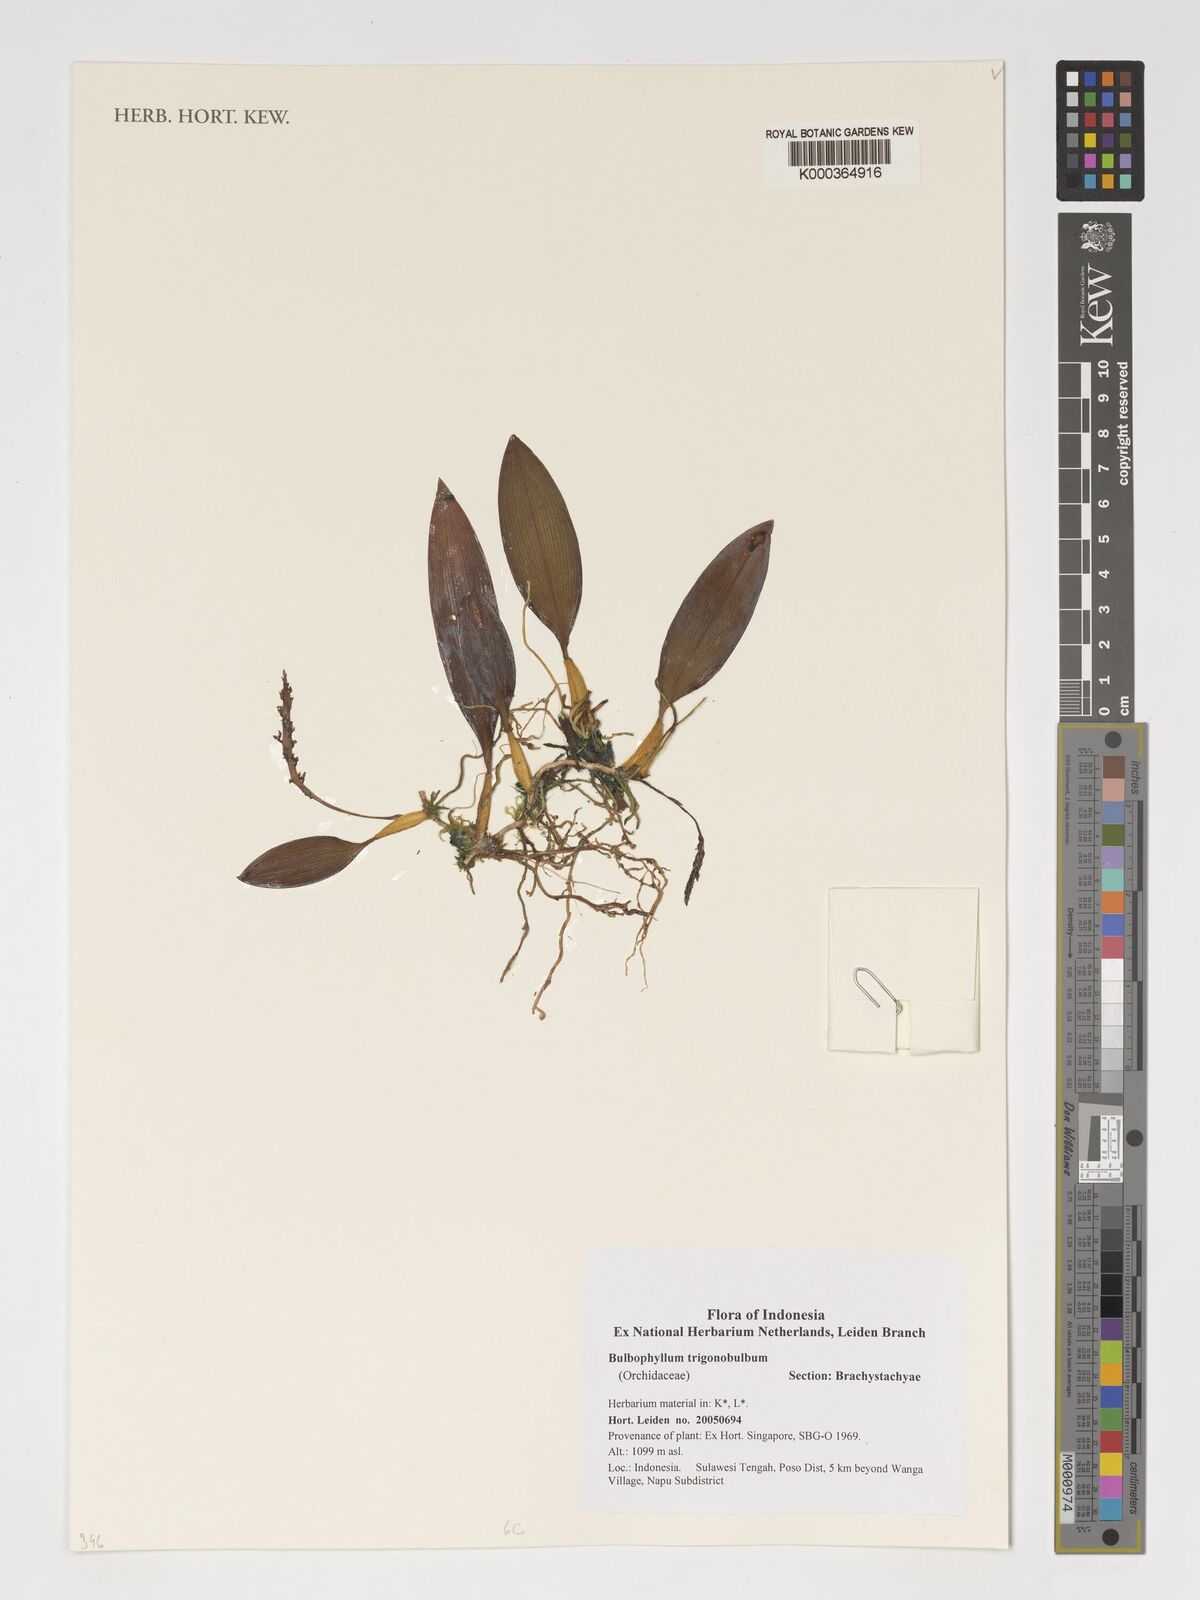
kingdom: Plantae
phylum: Tracheophyta
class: Liliopsida
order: Asparagales
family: Orchidaceae
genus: Bulbophyllum
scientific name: Bulbophyllum trigonobulbum
